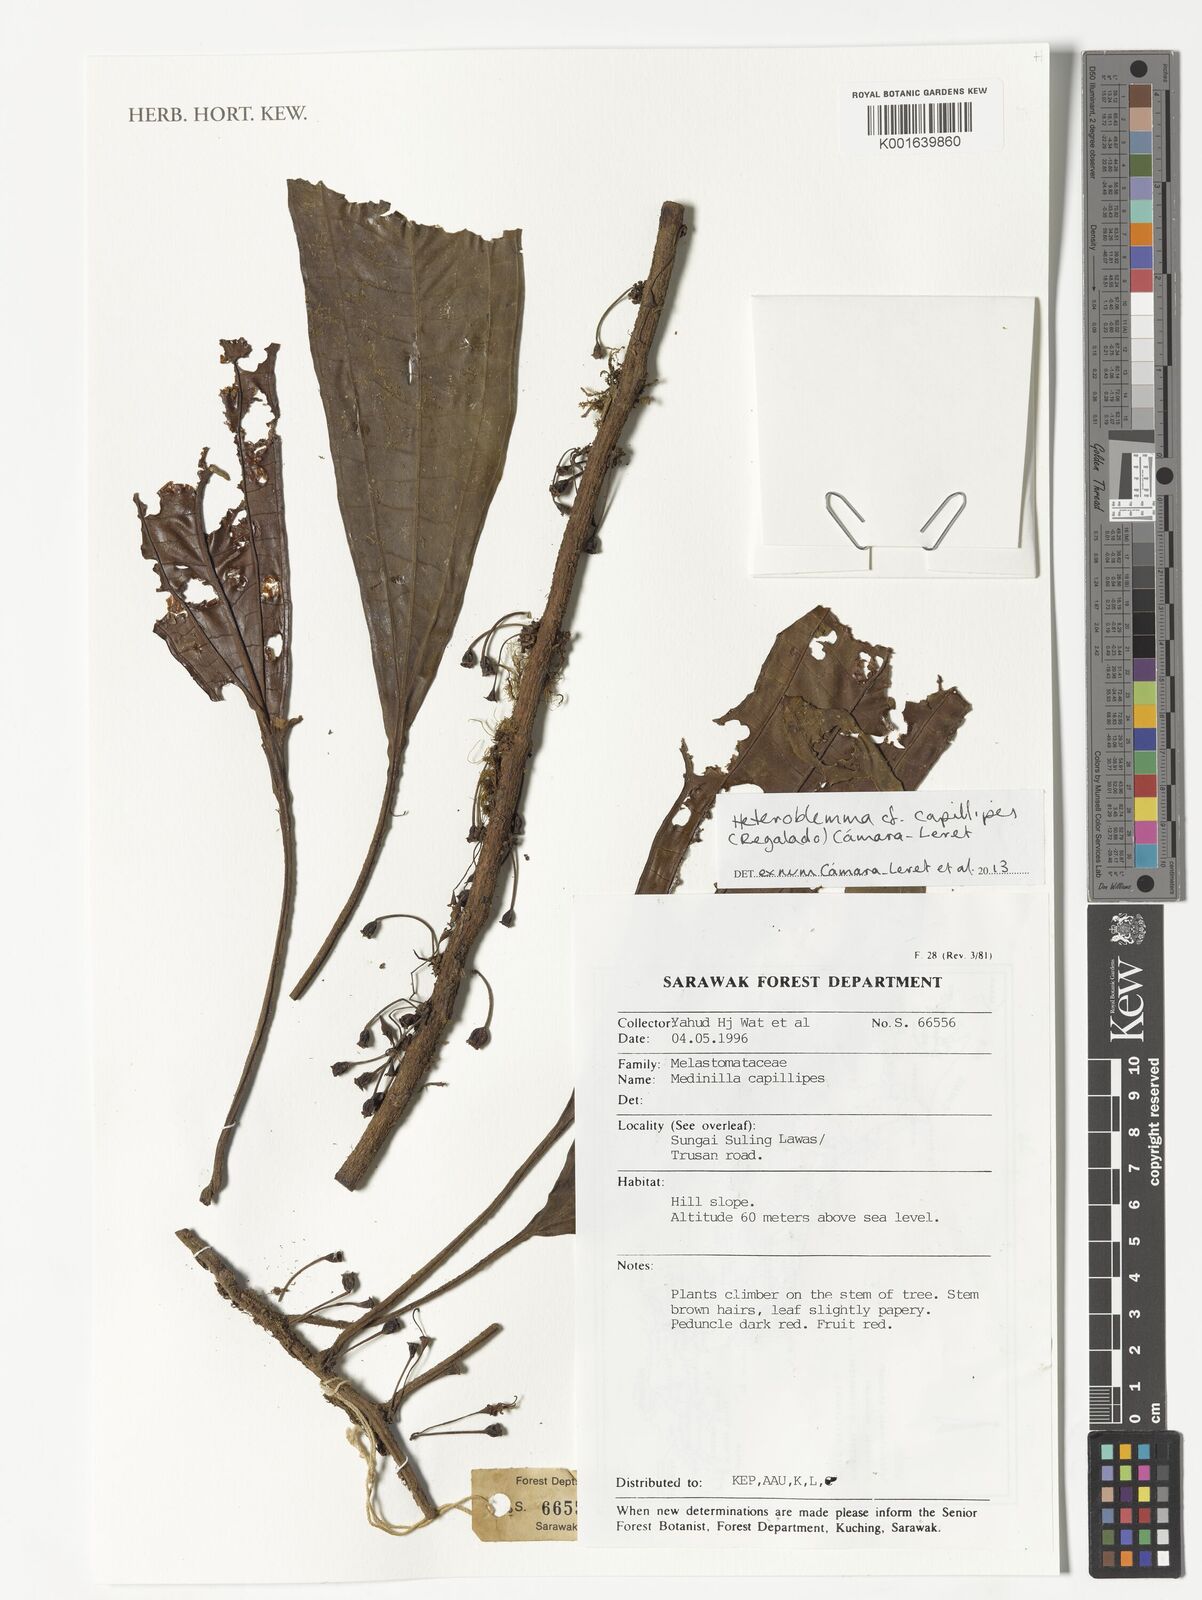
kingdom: Plantae
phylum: Tracheophyta
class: Magnoliopsida
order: Myrtales
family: Melastomataceae
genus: Heteroblemma
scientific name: Heteroblemma capillipes
